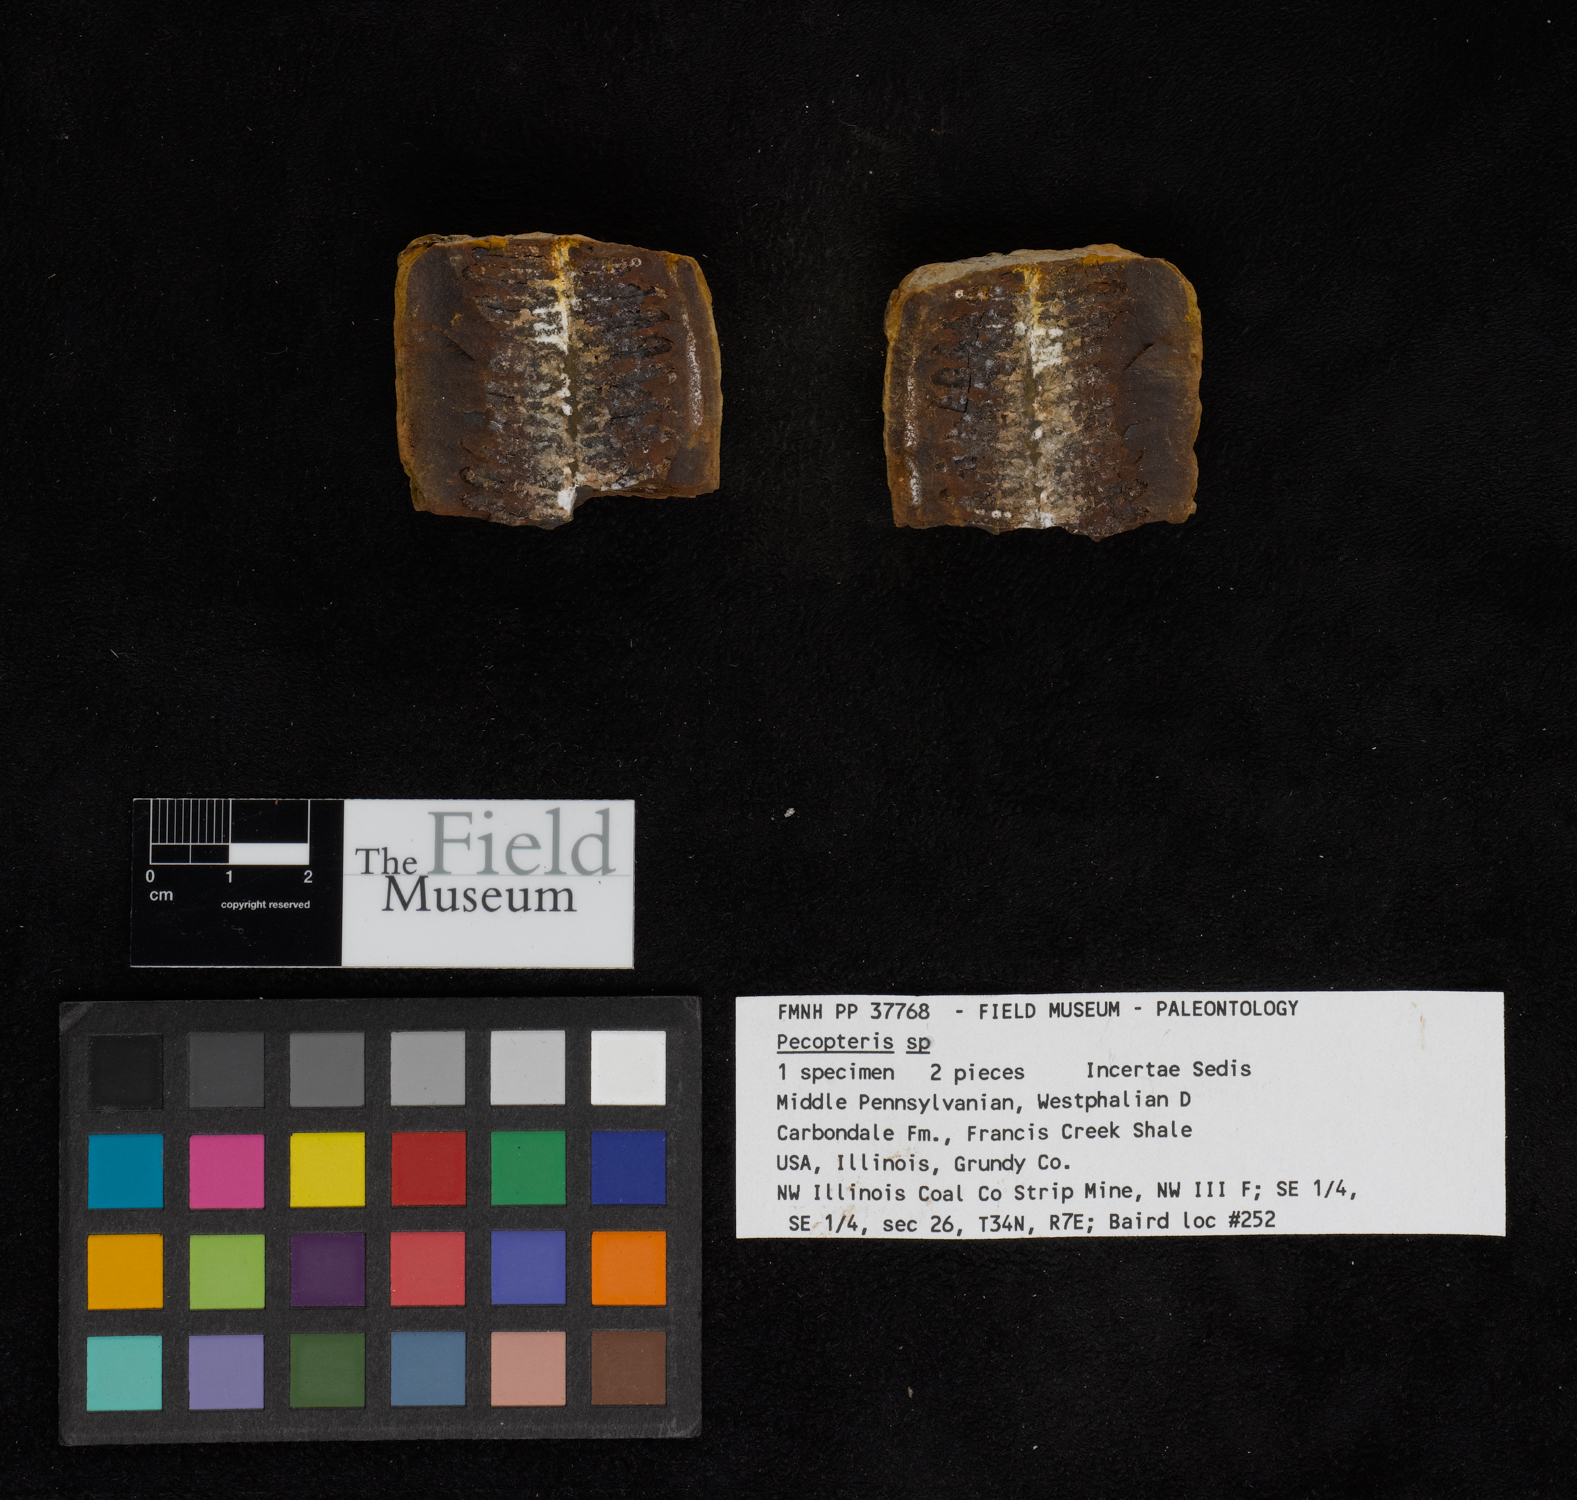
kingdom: Plantae
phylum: Tracheophyta
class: Polypodiopsida
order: Marattiales
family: Asterothecaceae
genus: Pecopteris
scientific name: Pecopteris
